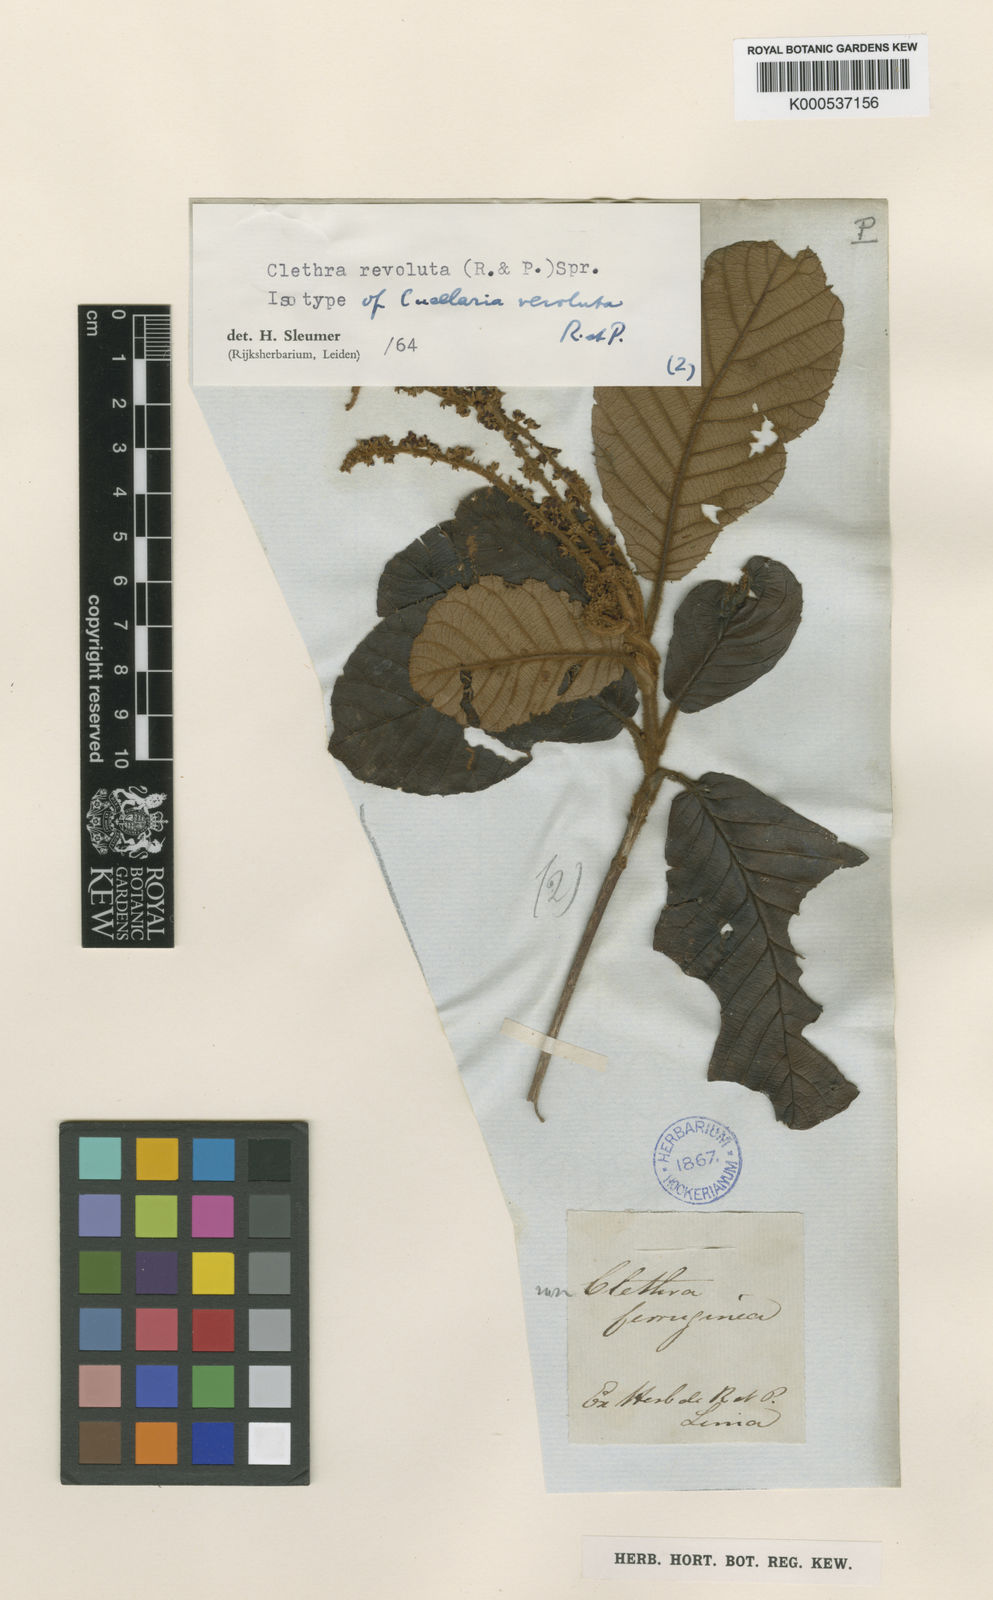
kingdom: Plantae
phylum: Tracheophyta
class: Magnoliopsida
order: Ericales
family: Clethraceae
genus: Clethra
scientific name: Clethra revoluta
